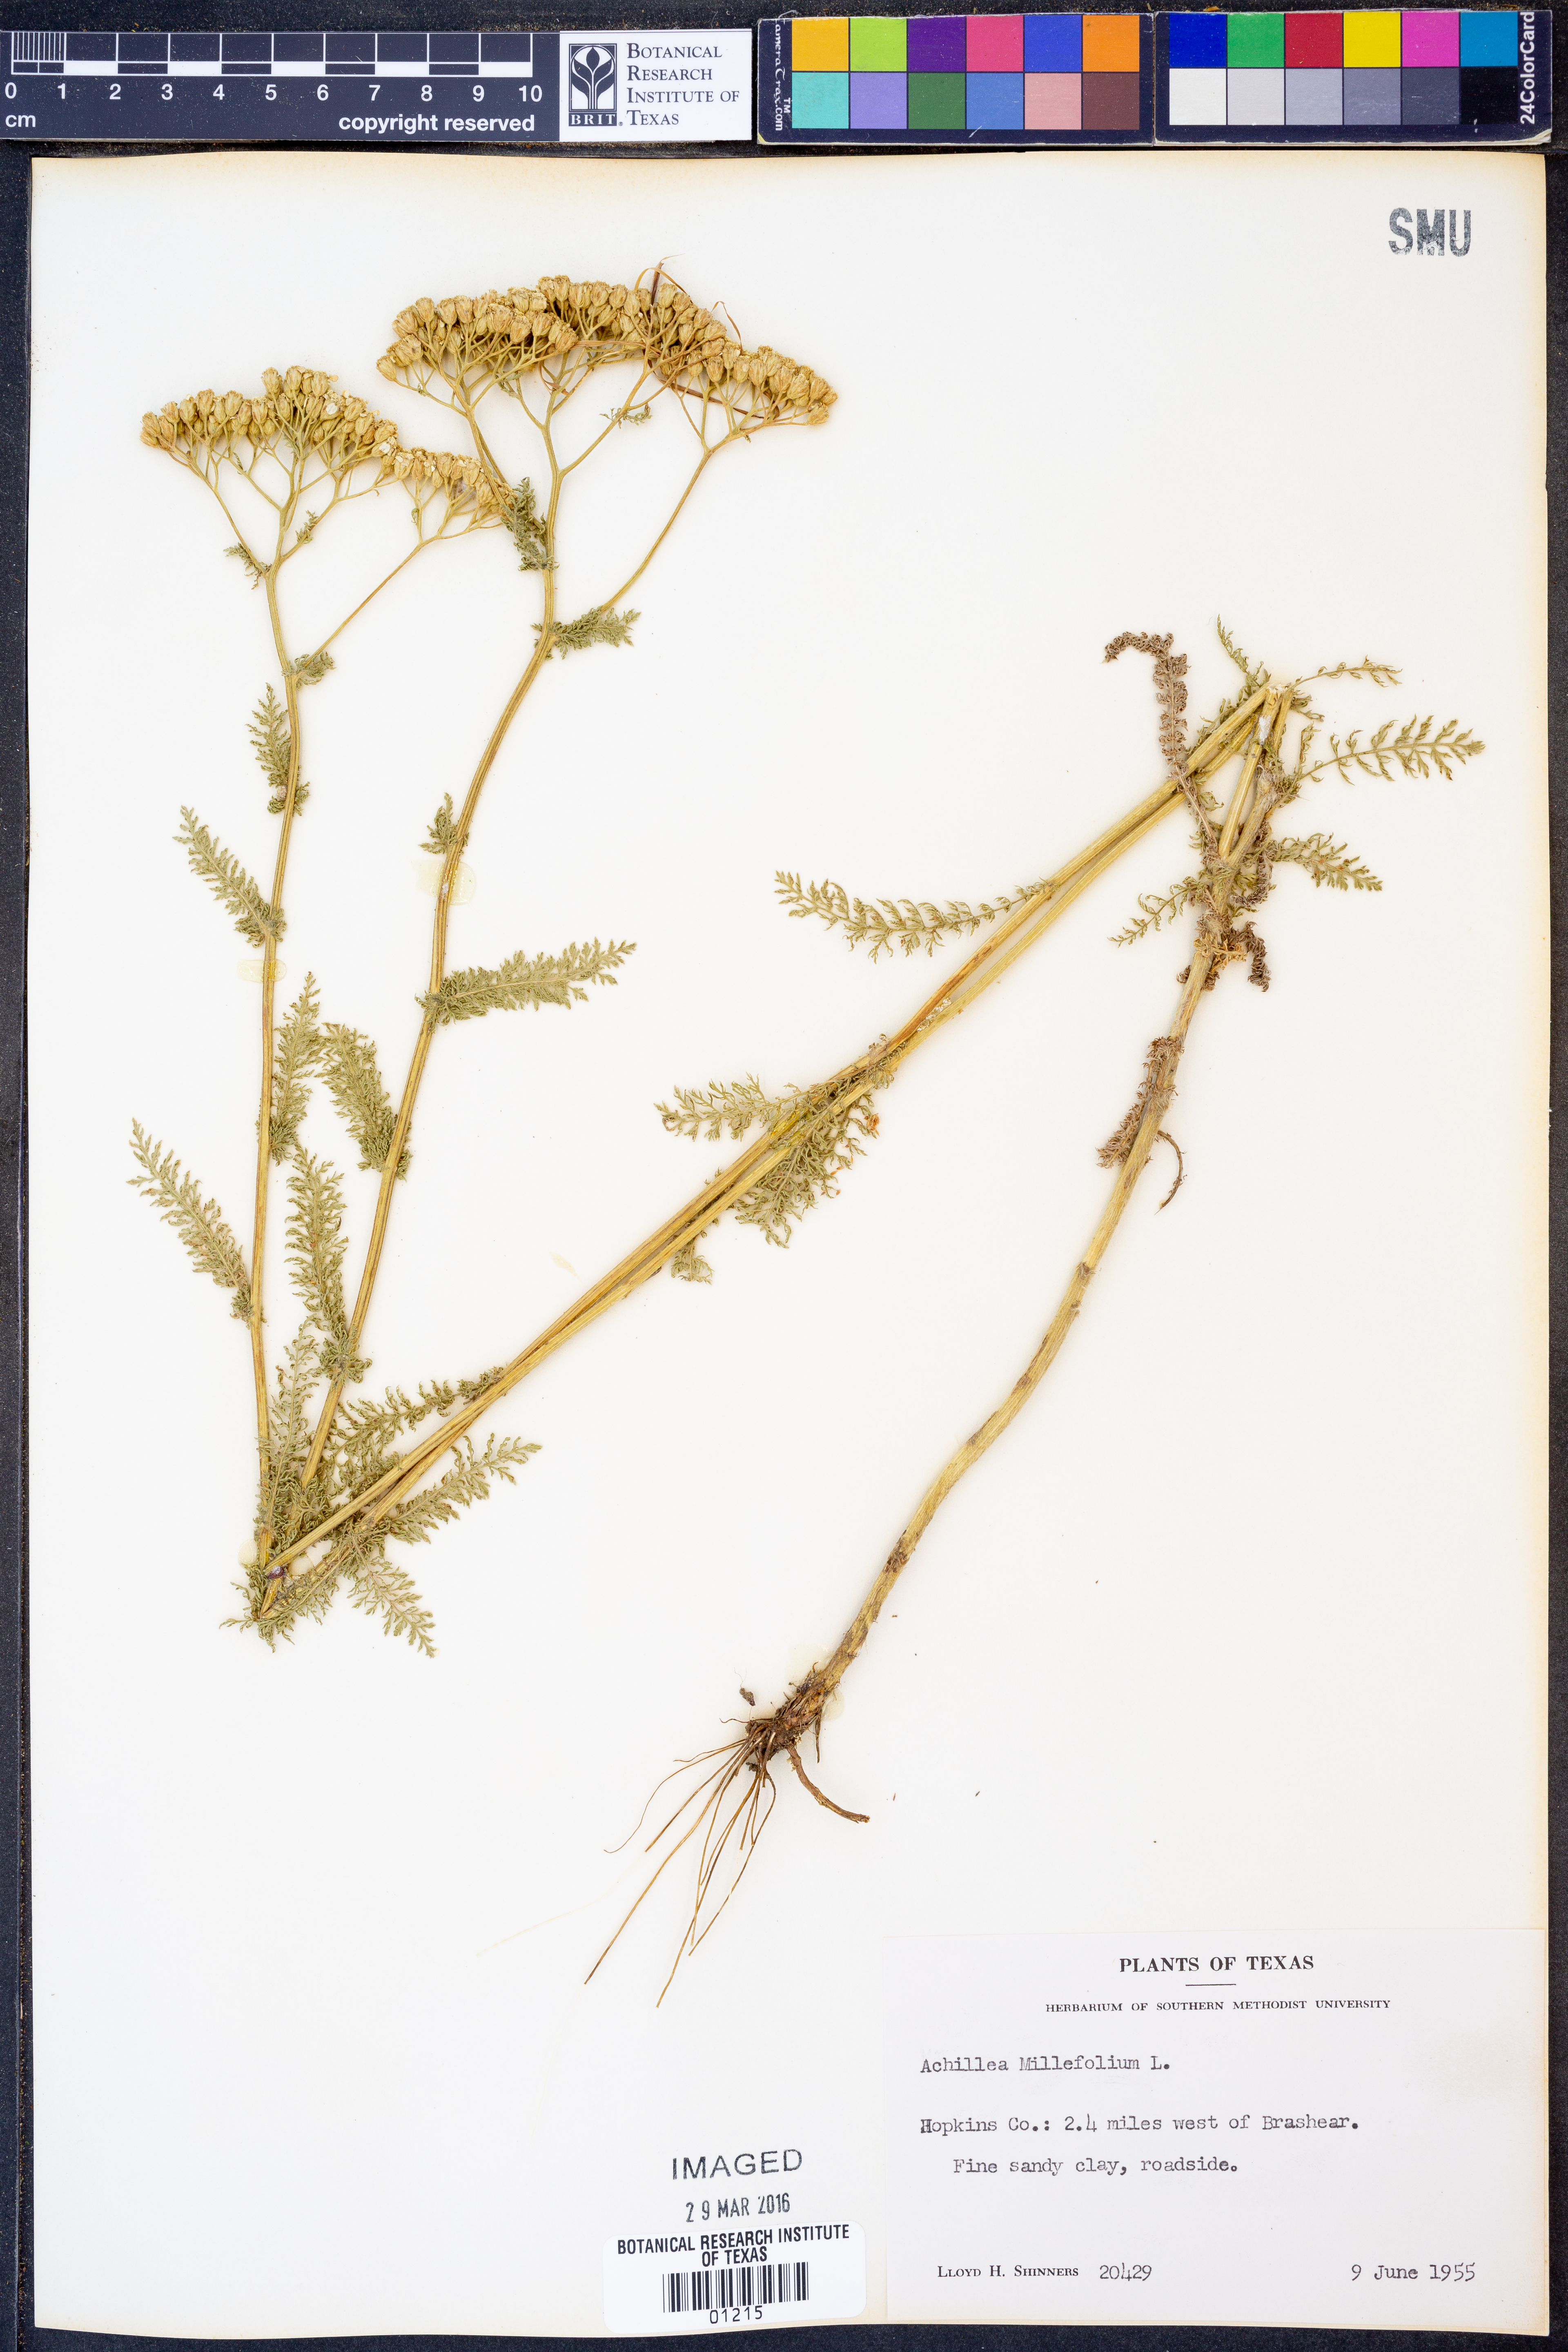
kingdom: Plantae
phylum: Tracheophyta
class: Magnoliopsida
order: Asterales
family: Asteraceae
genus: Achillea
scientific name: Achillea millefolium
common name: Yarrow
